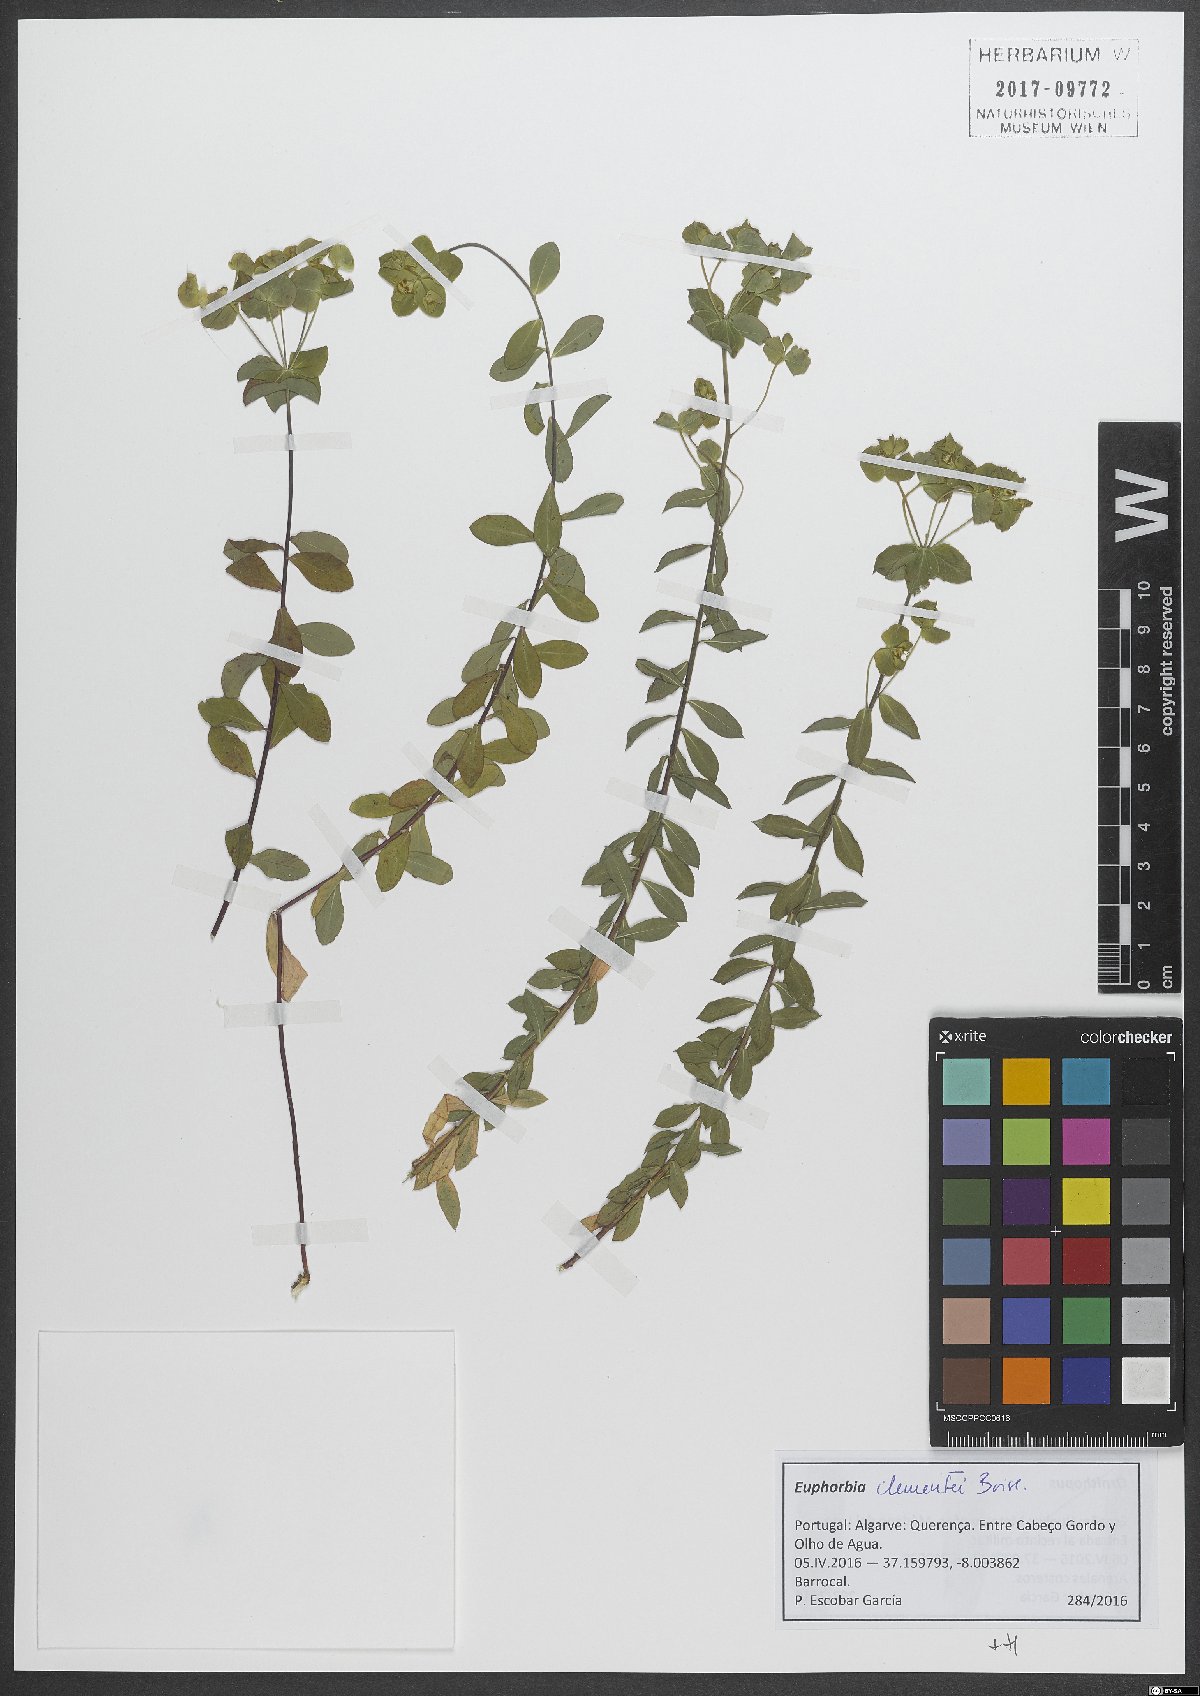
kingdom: Plantae
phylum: Tracheophyta
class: Magnoliopsida
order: Malpighiales
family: Euphorbiaceae
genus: Euphorbia
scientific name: Euphorbia clementei
